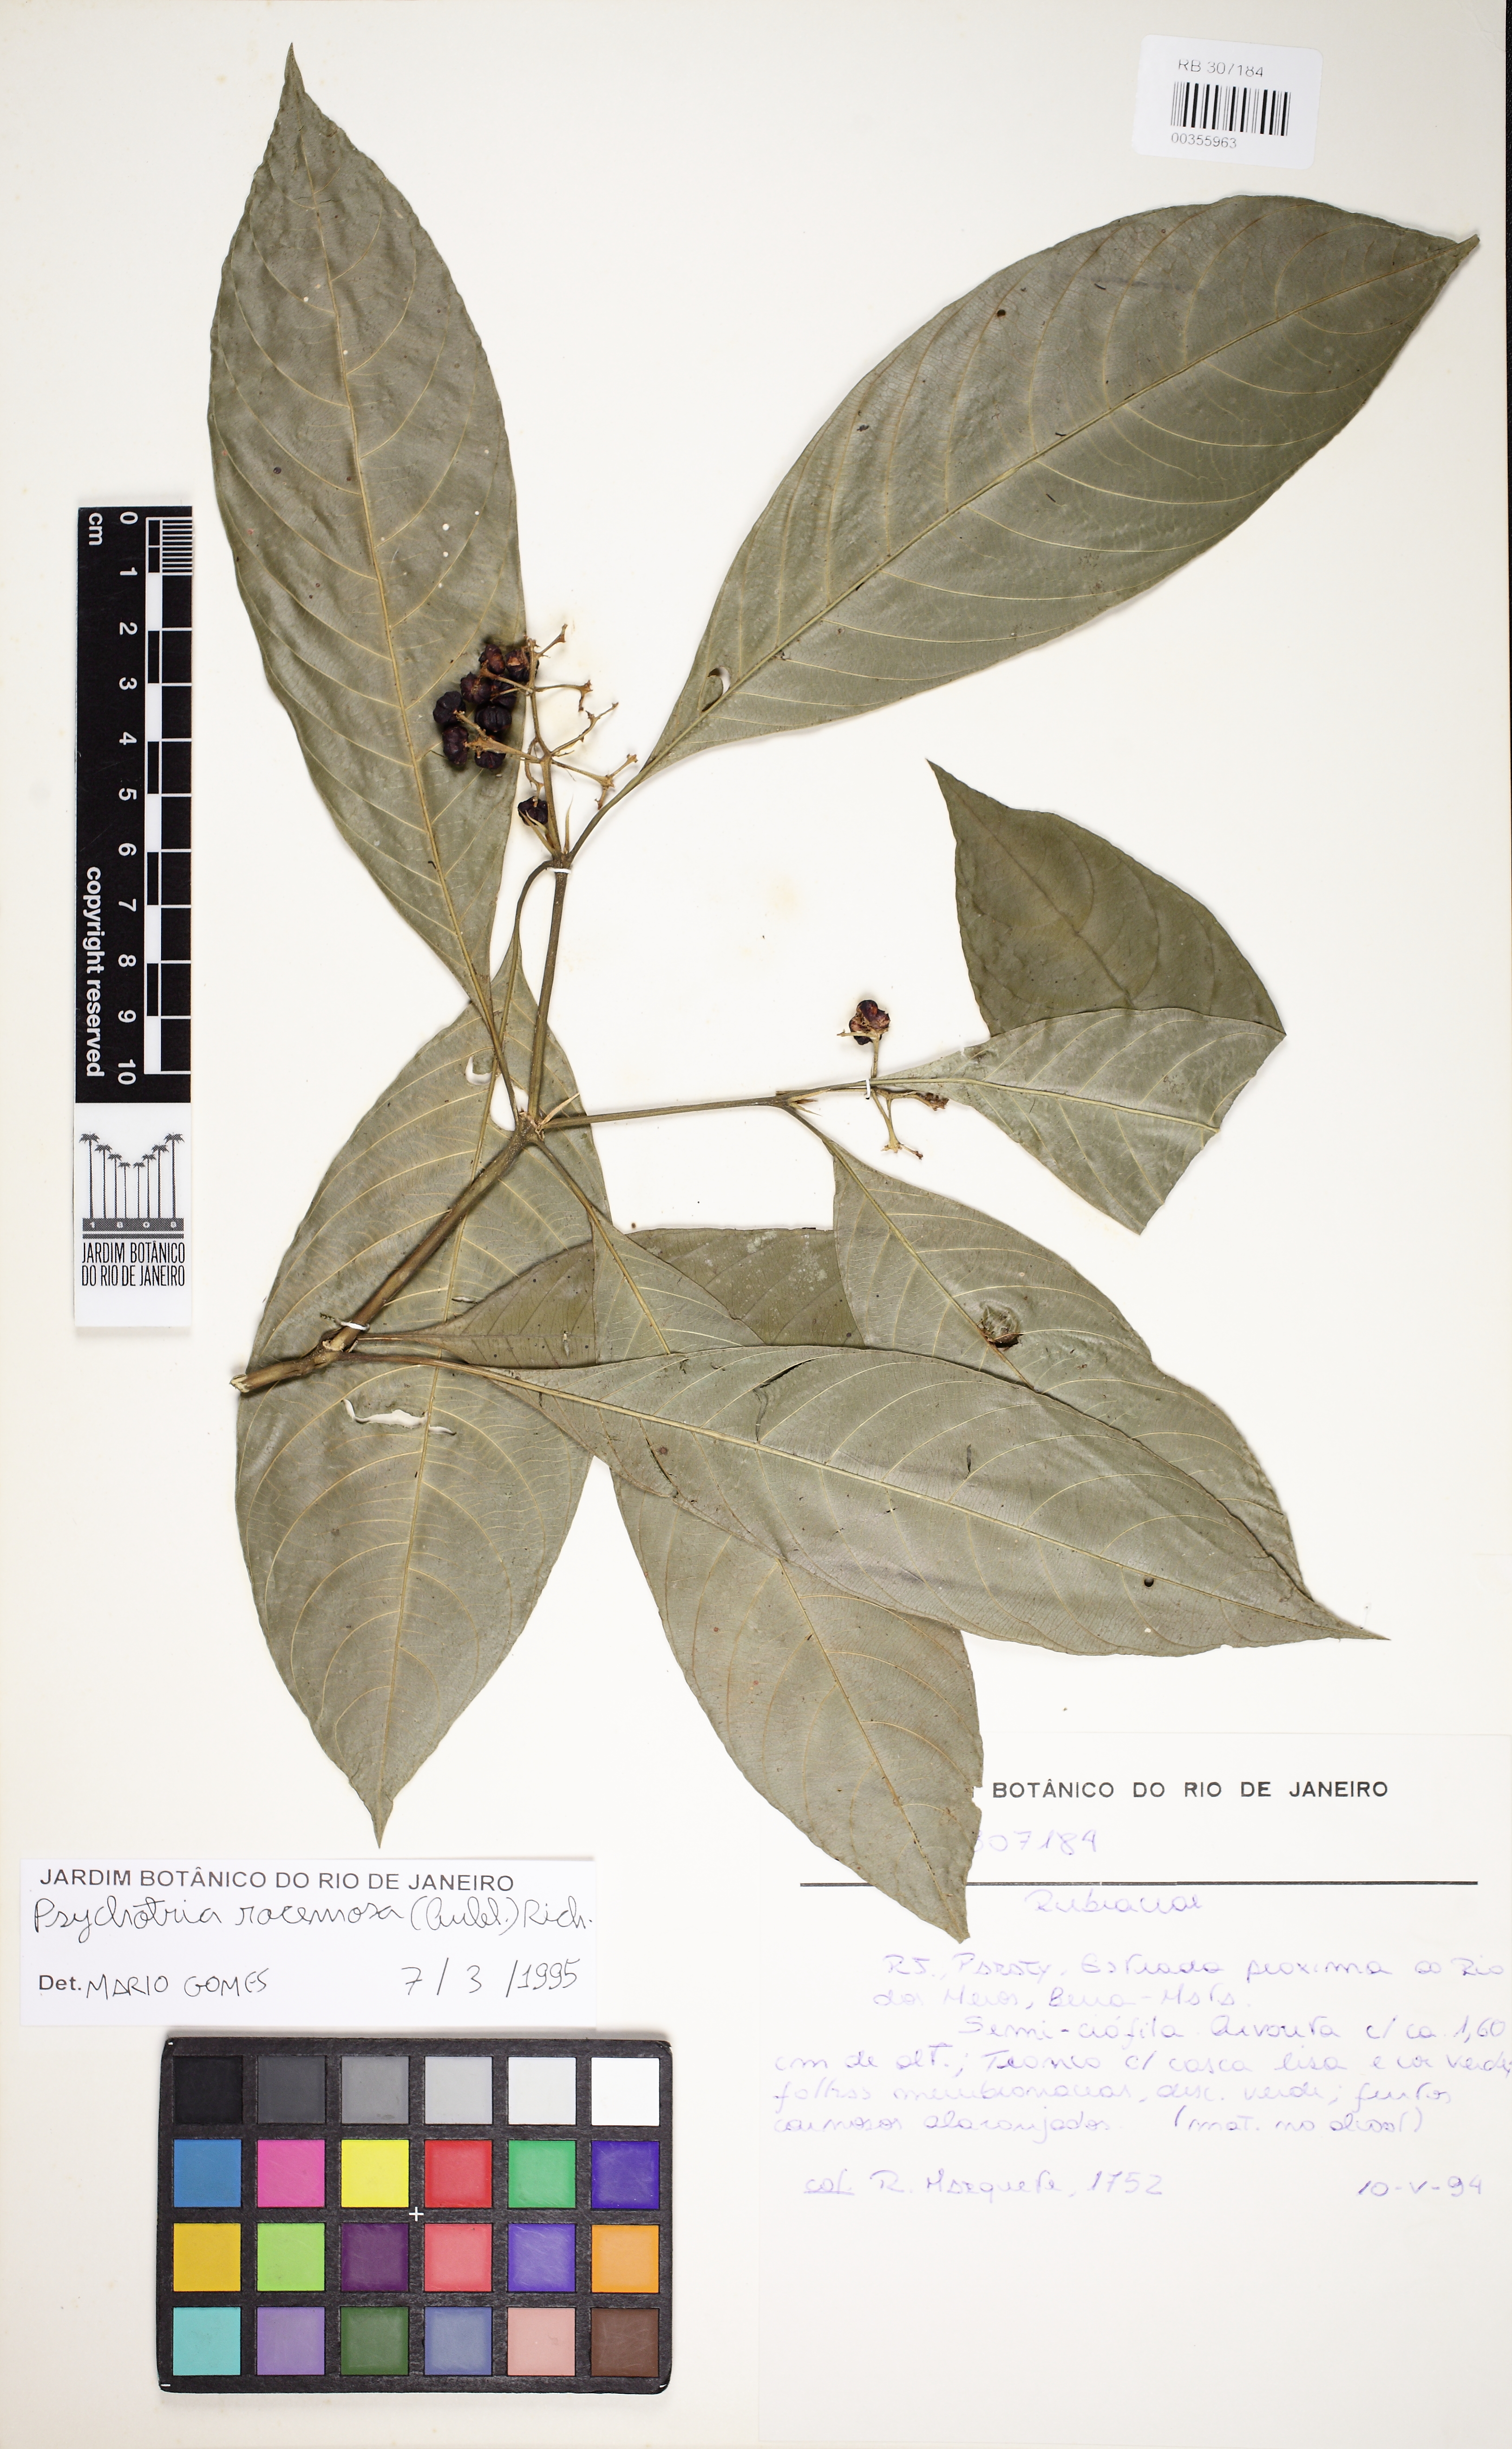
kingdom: Plantae
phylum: Tracheophyta
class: Magnoliopsida
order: Gentianales
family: Rubiaceae
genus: Palicourea
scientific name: Palicourea racemosa
